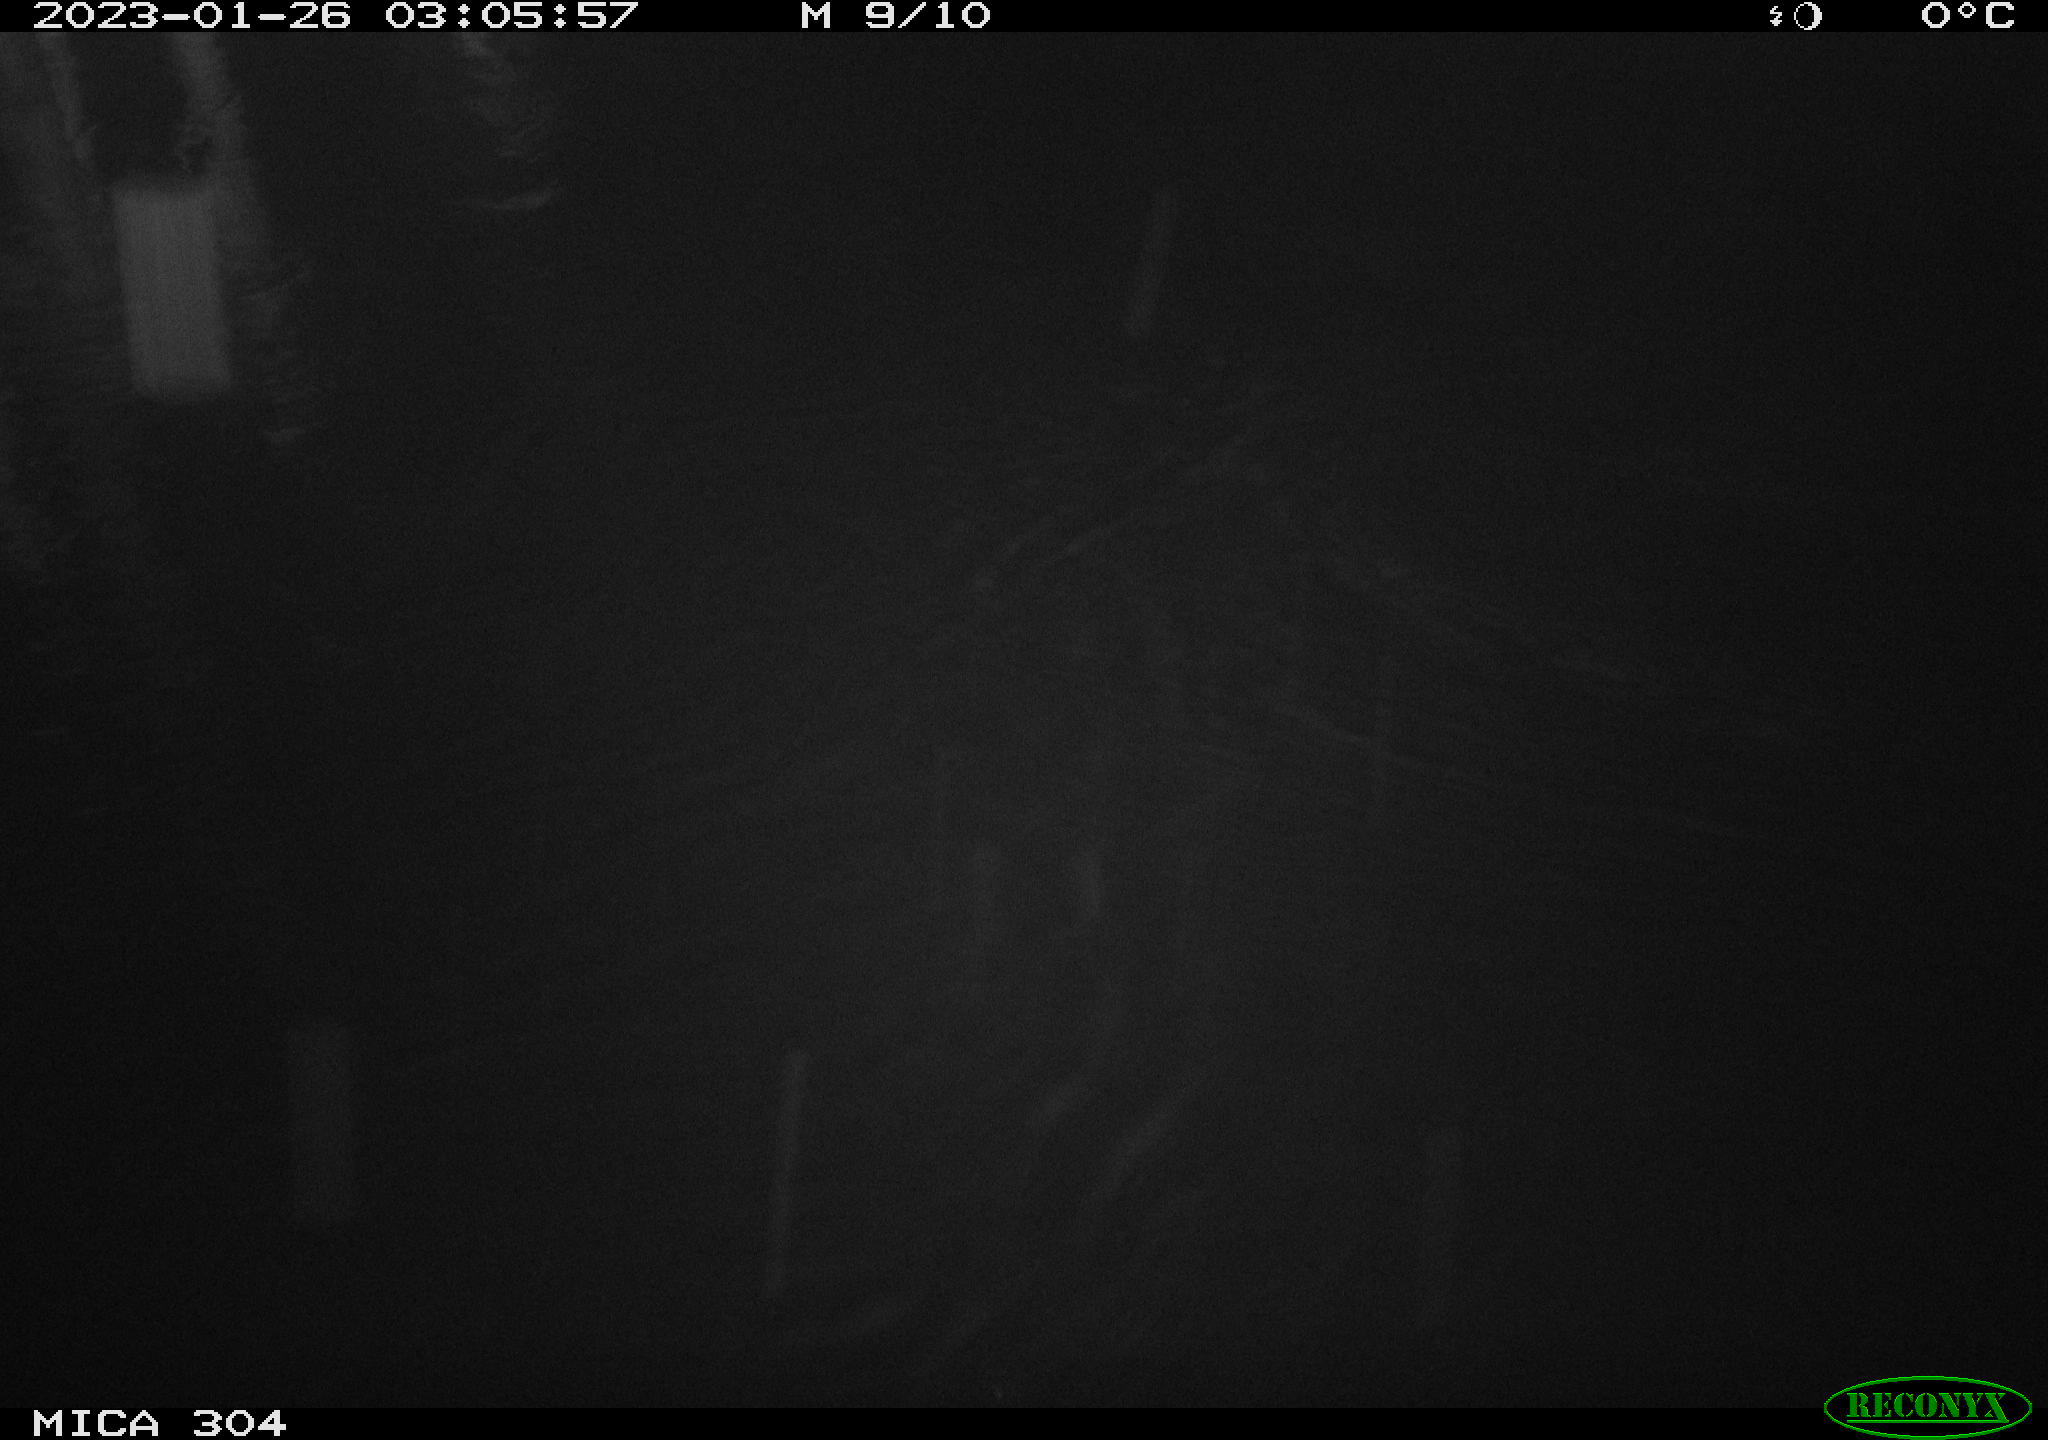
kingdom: Animalia
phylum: Chordata
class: Mammalia
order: Rodentia
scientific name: Rodentia
